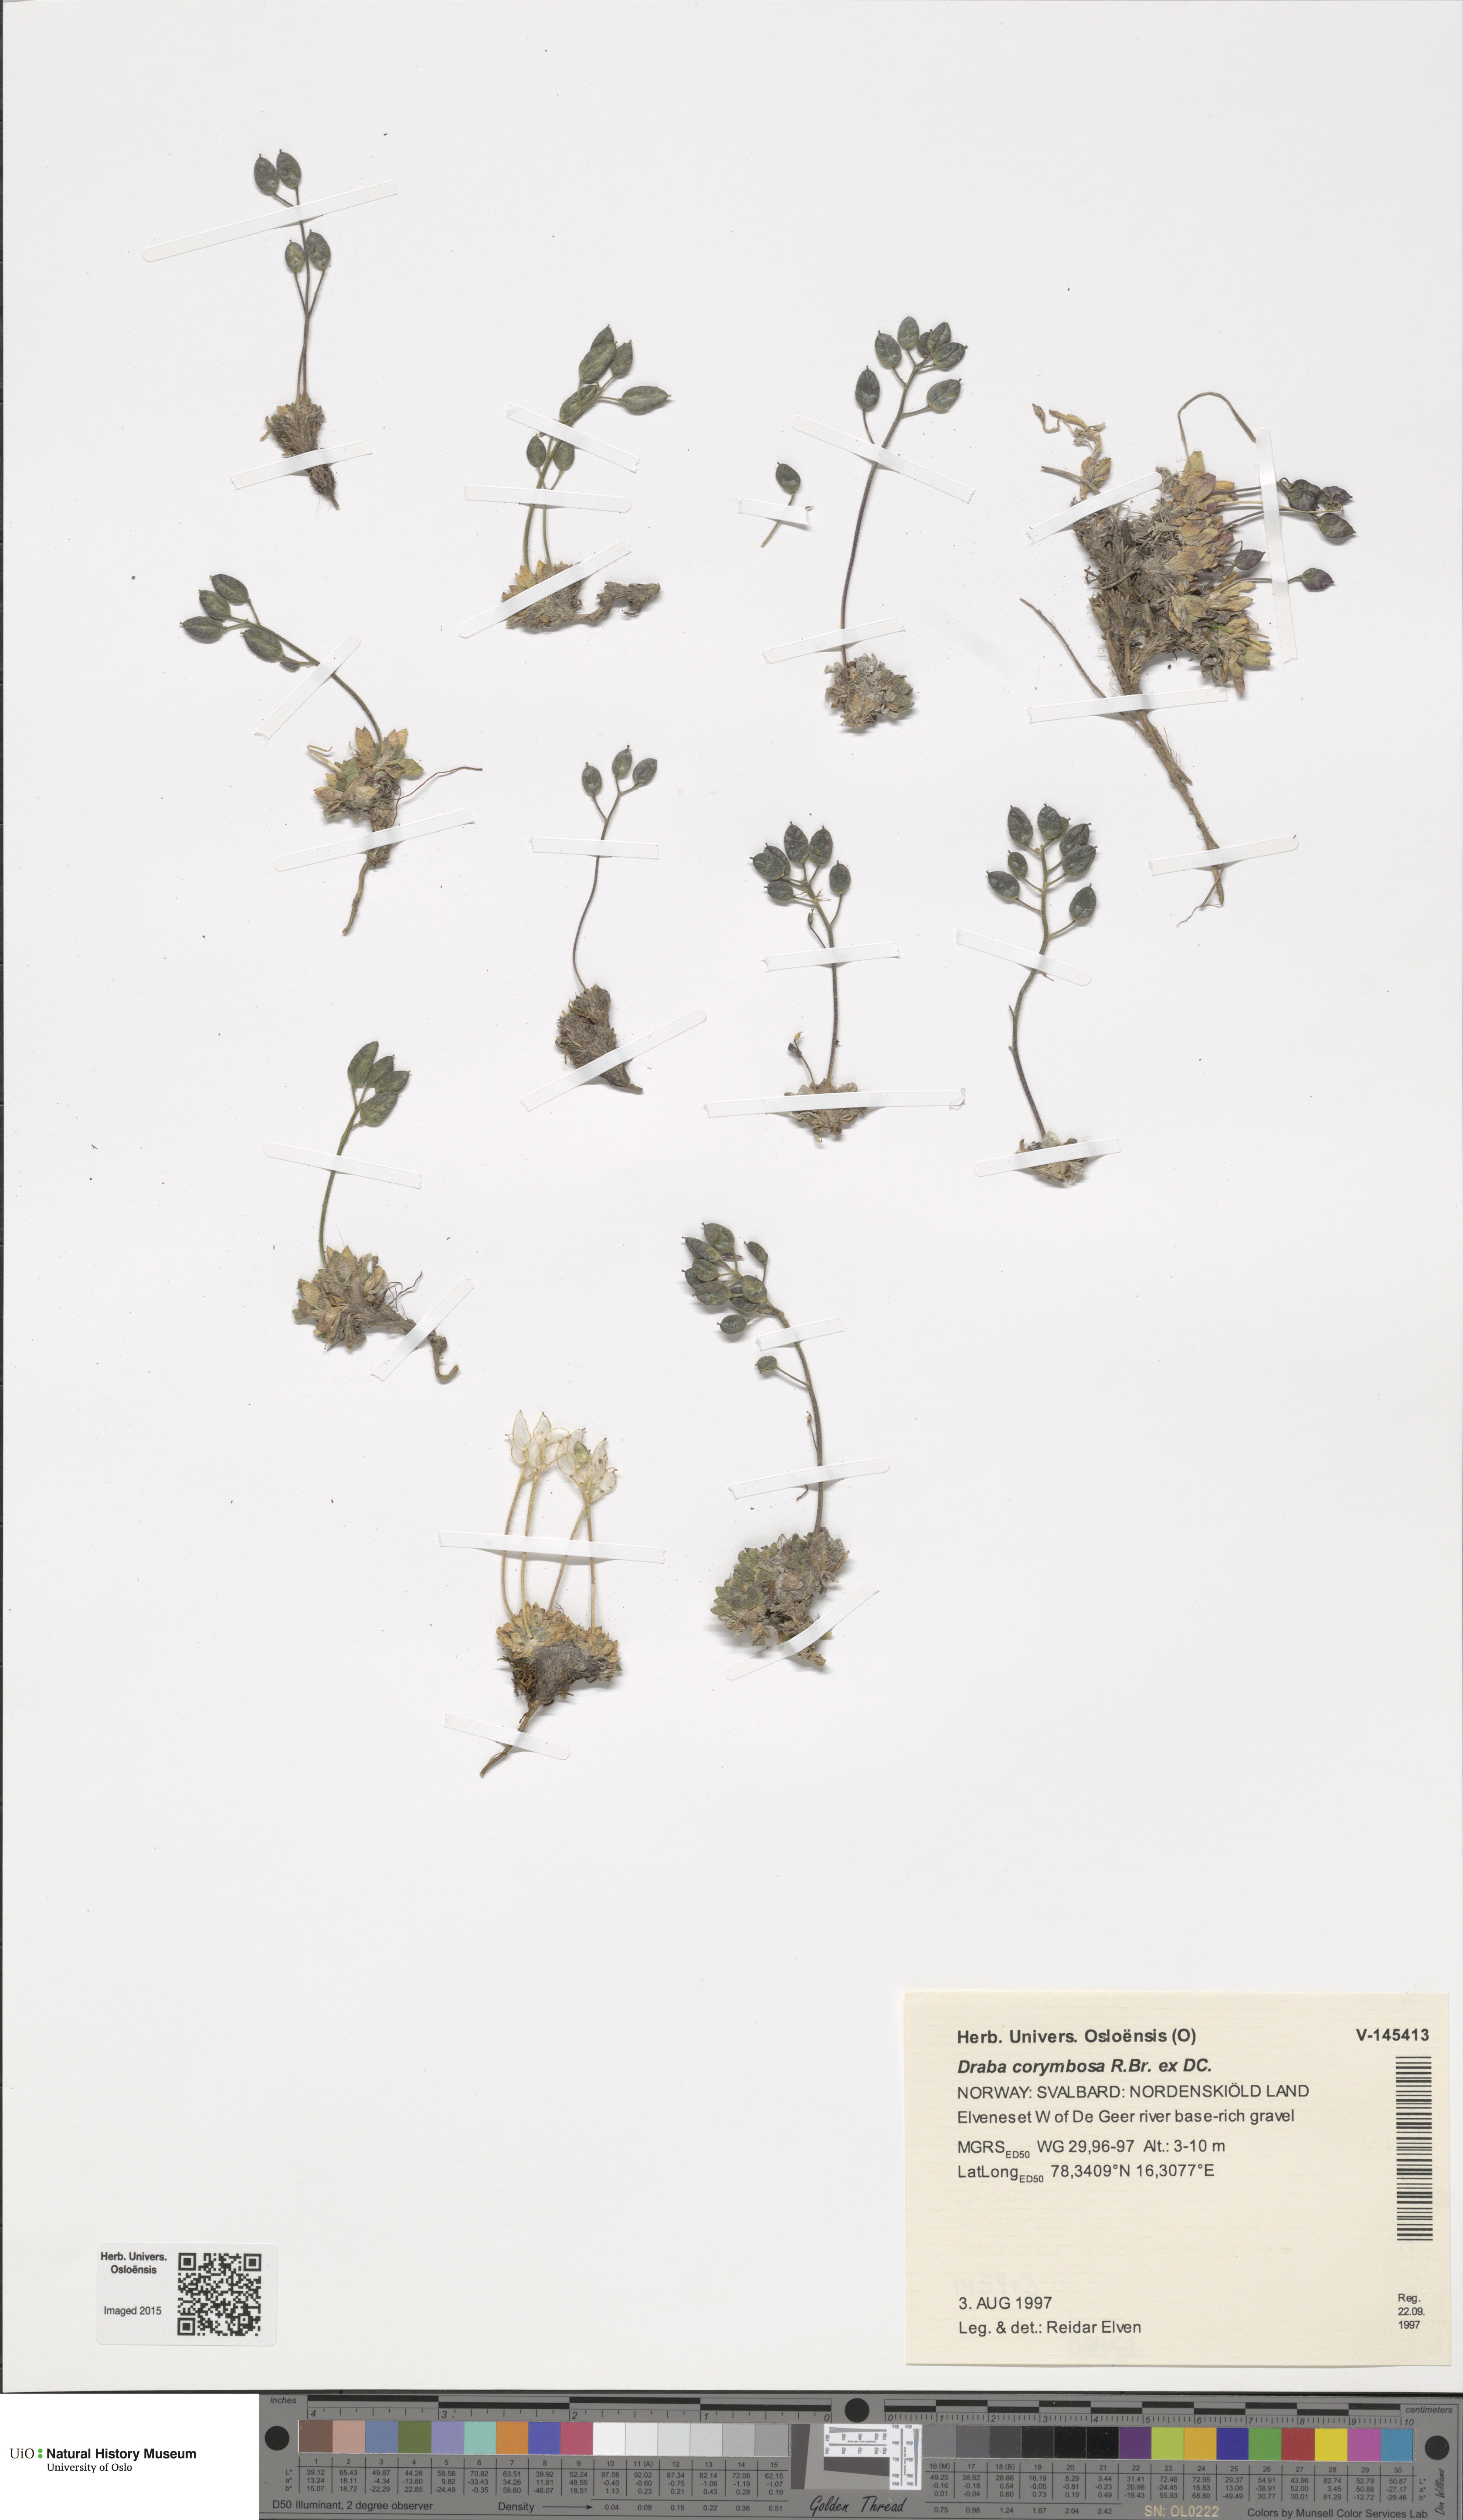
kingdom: Plantae
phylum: Tracheophyta
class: Magnoliopsida
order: Brassicales
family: Brassicaceae
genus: Draba
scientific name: Draba corymbosa
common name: Cushion whitlow-grass
